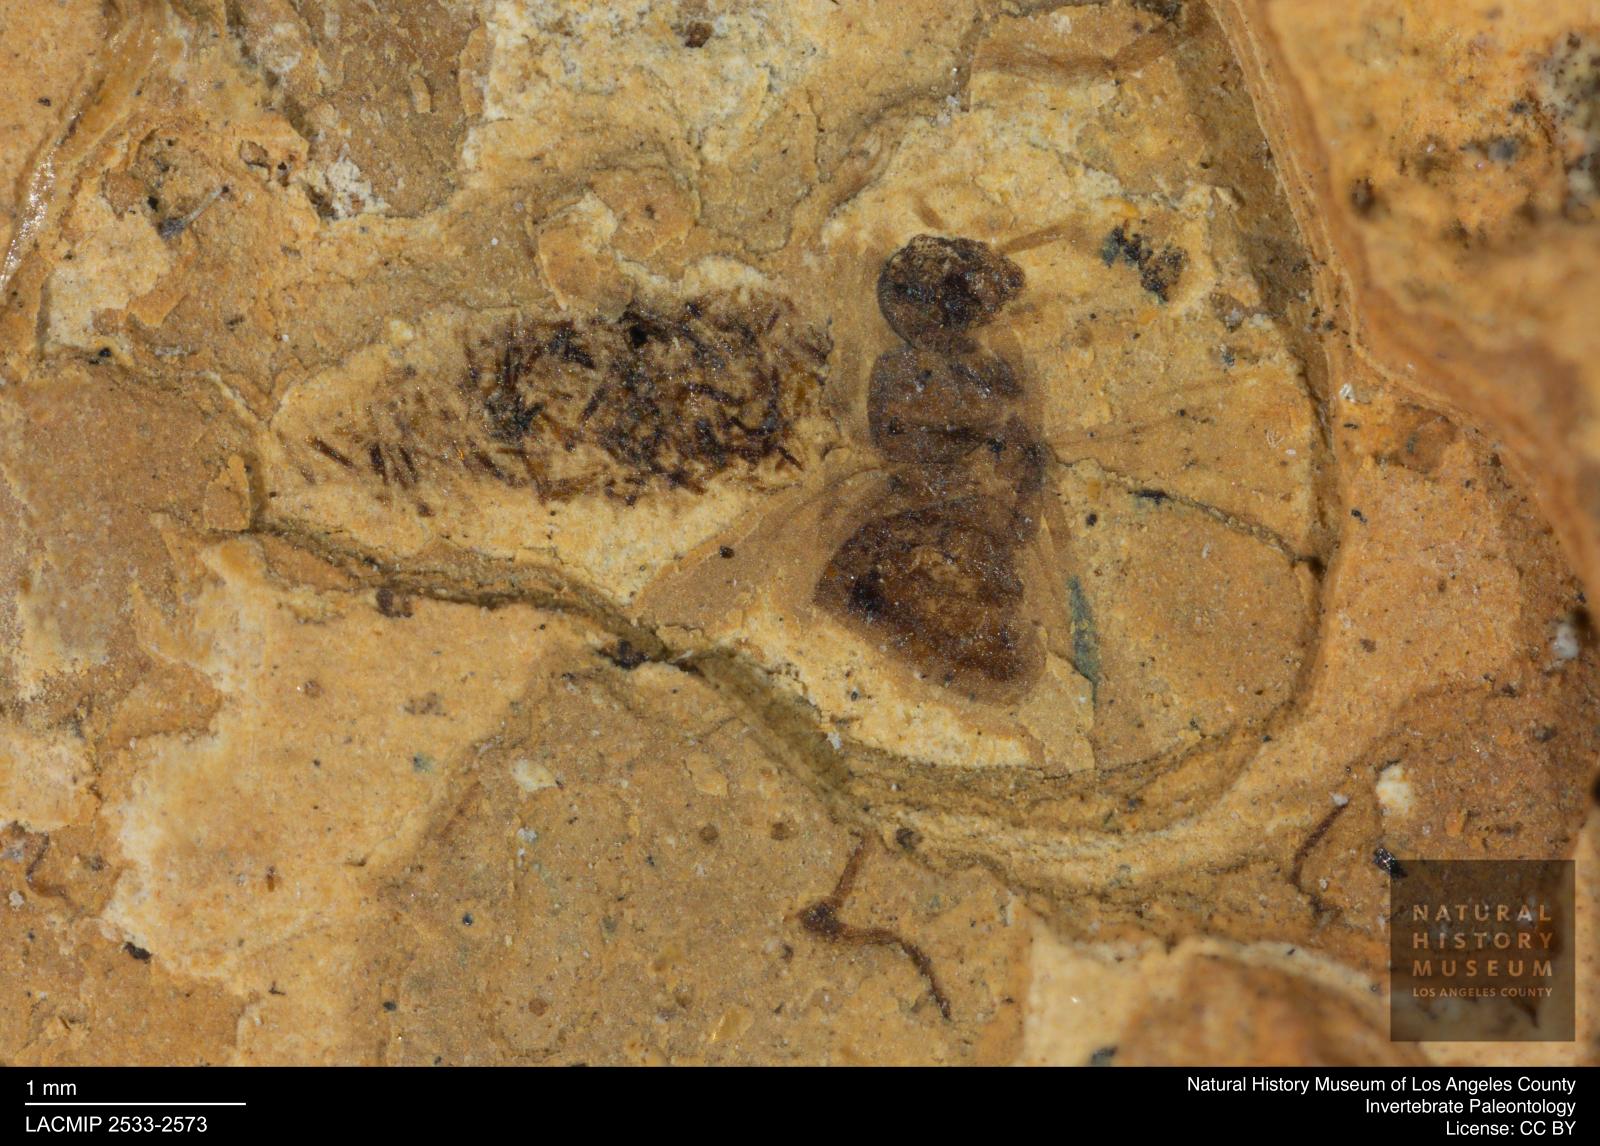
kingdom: Animalia
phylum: Arthropoda
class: Insecta
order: Hymenoptera
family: Formicidae
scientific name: Formicidae
